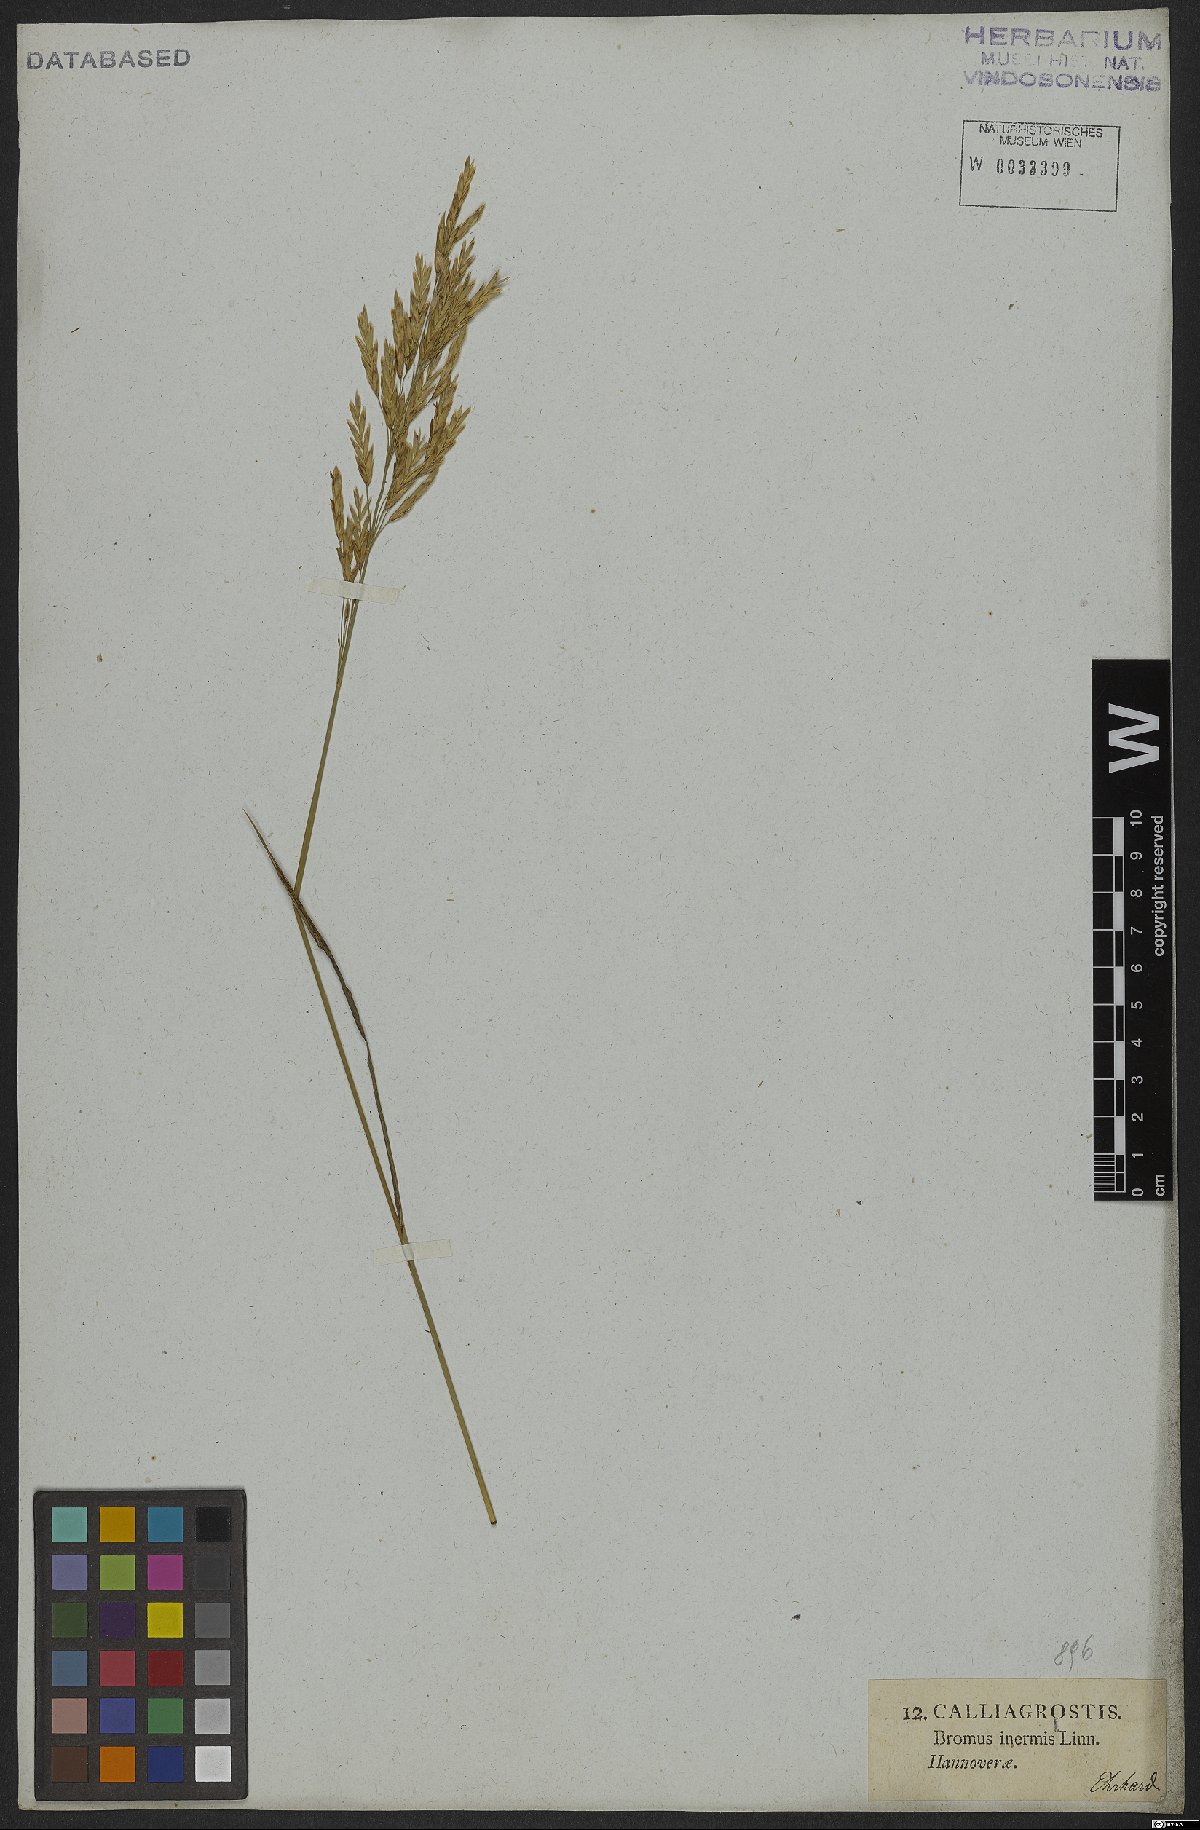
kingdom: Plantae
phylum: Tracheophyta
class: Liliopsida
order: Poales
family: Poaceae
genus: Bromus
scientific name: Bromus inermis
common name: Smooth brome
